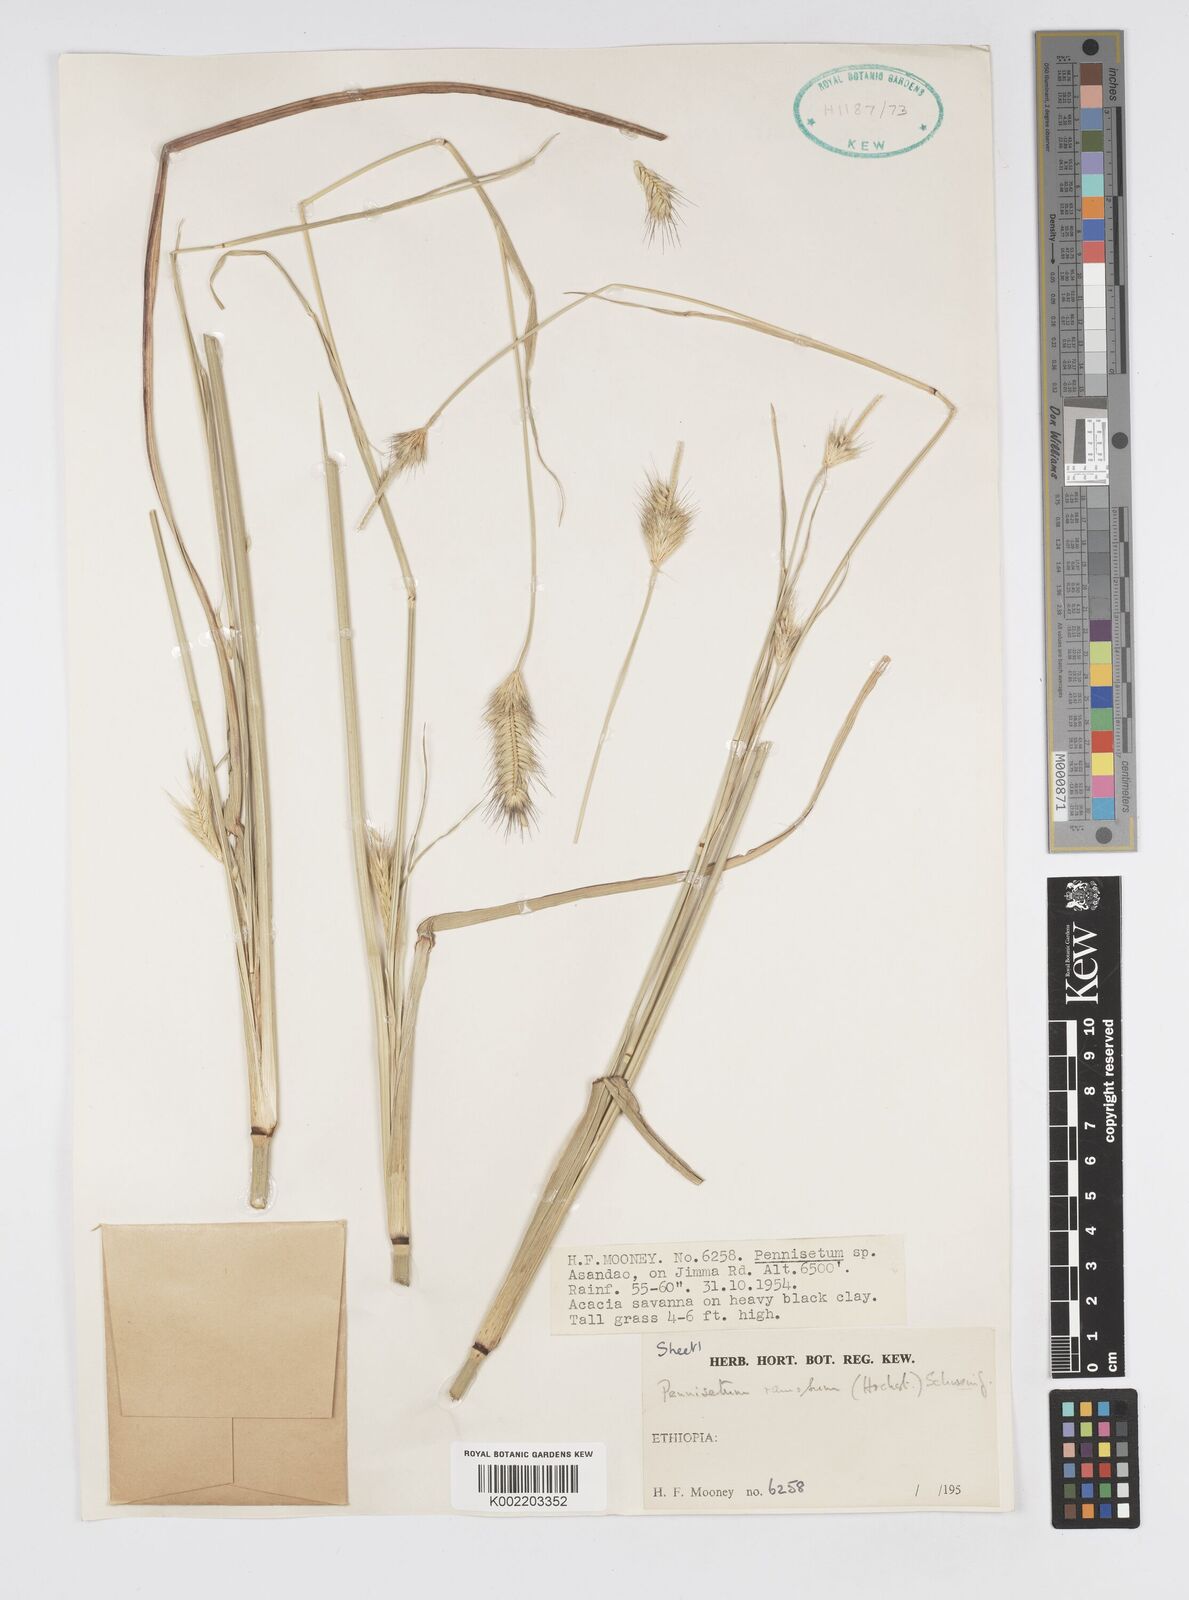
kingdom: Plantae
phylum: Tracheophyta
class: Liliopsida
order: Poales
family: Poaceae
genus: Cenchrus
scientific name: Cenchrus ramosus
